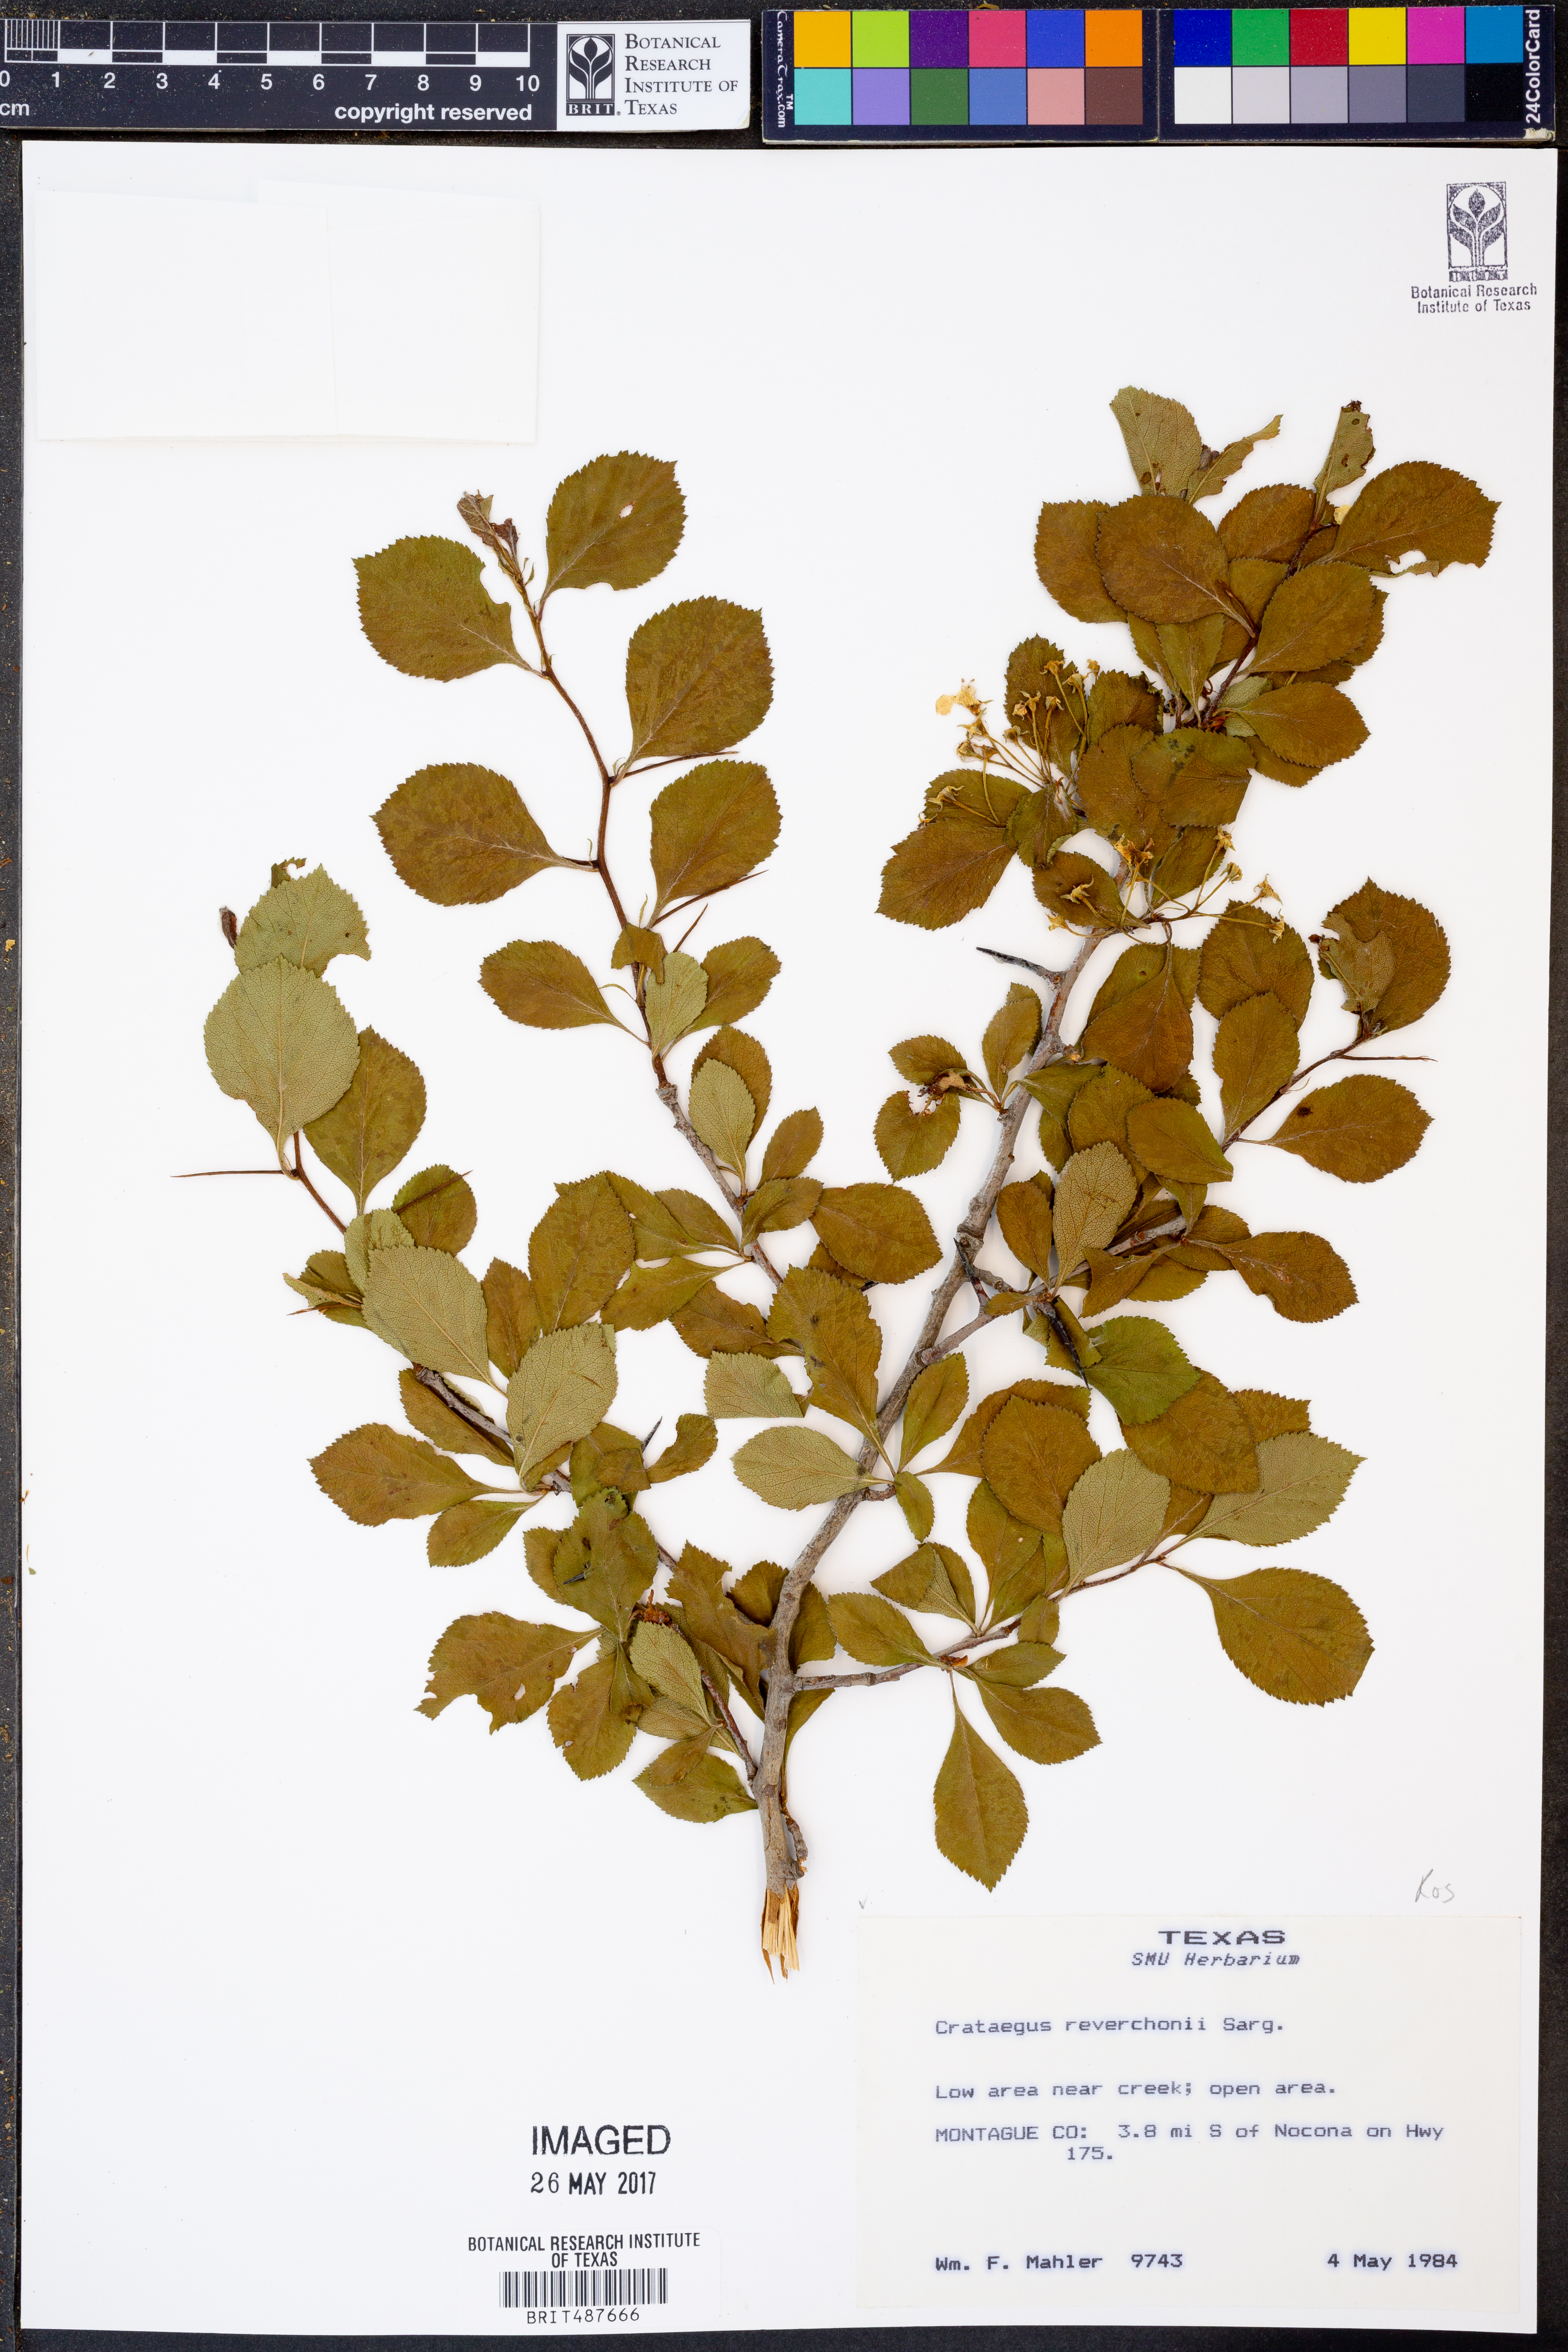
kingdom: Plantae
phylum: Tracheophyta
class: Magnoliopsida
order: Rosales
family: Rosaceae
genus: Crataegus
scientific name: Crataegus reverchonii
